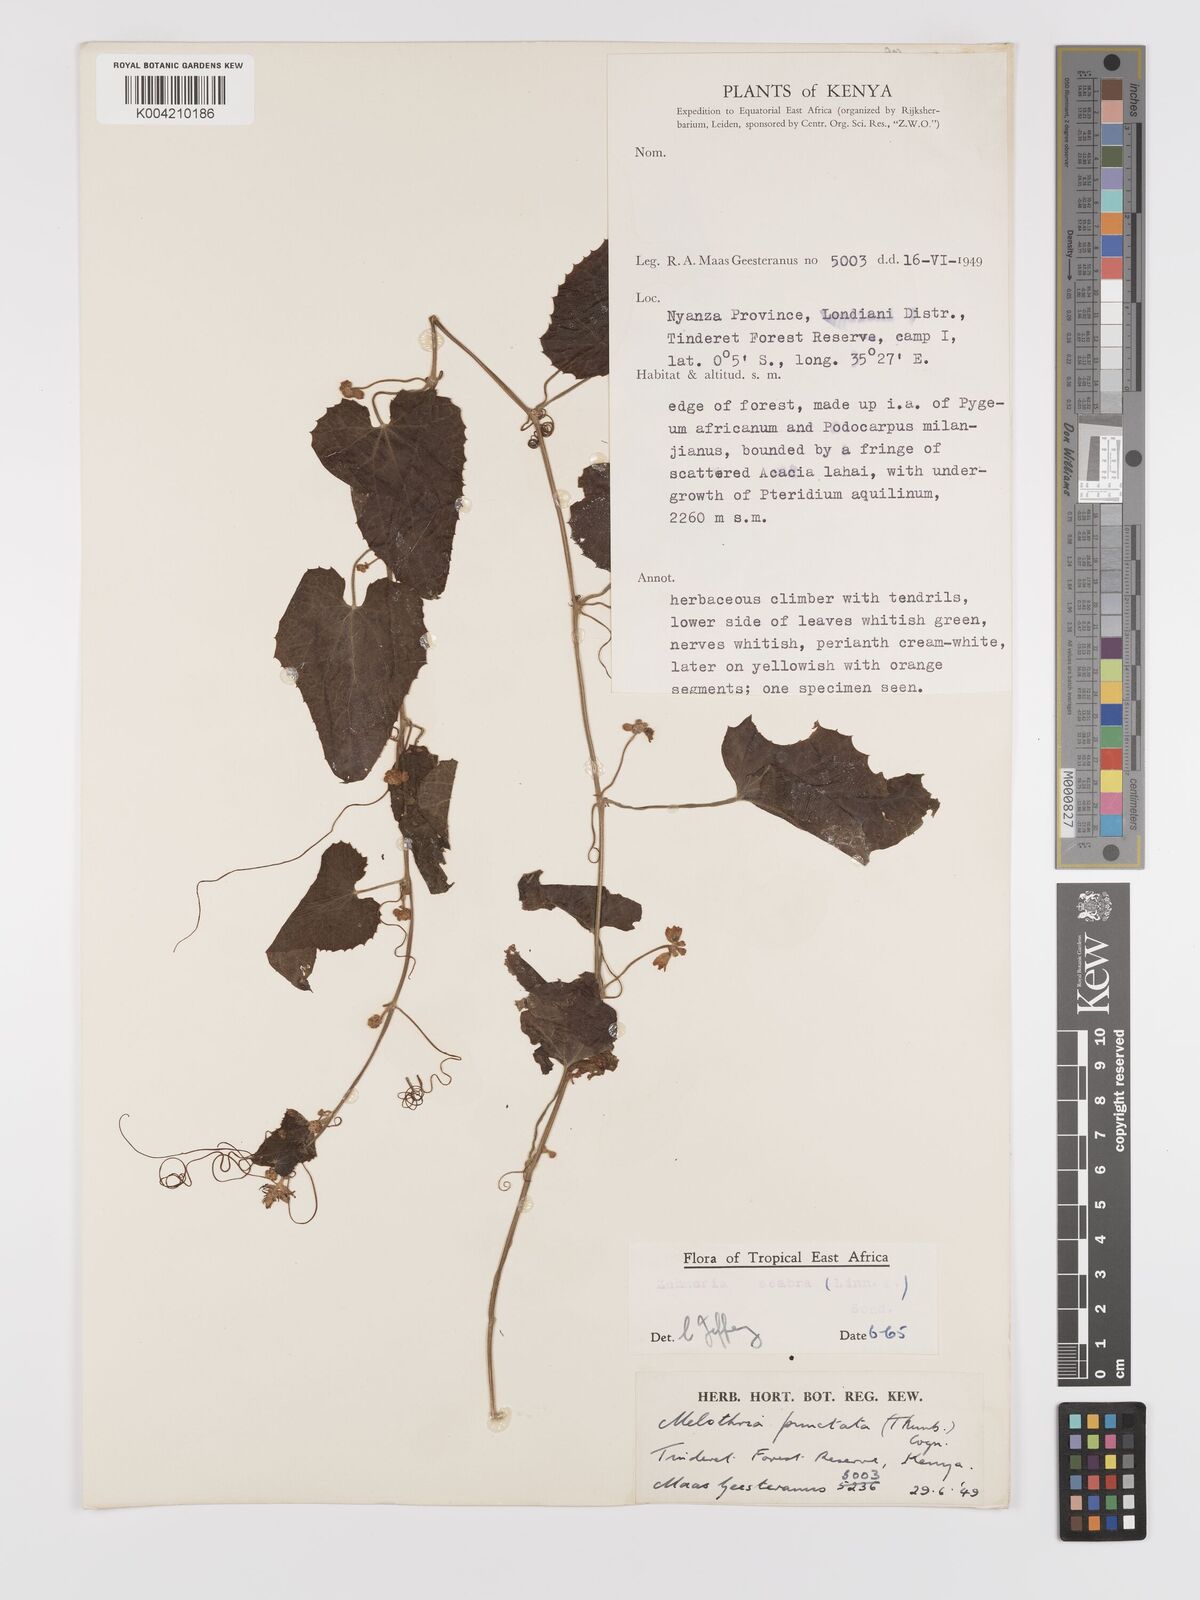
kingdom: Plantae
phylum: Tracheophyta
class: Magnoliopsida
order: Cucurbitales
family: Cucurbitaceae
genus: Zehneria
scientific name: Zehneria scabra
